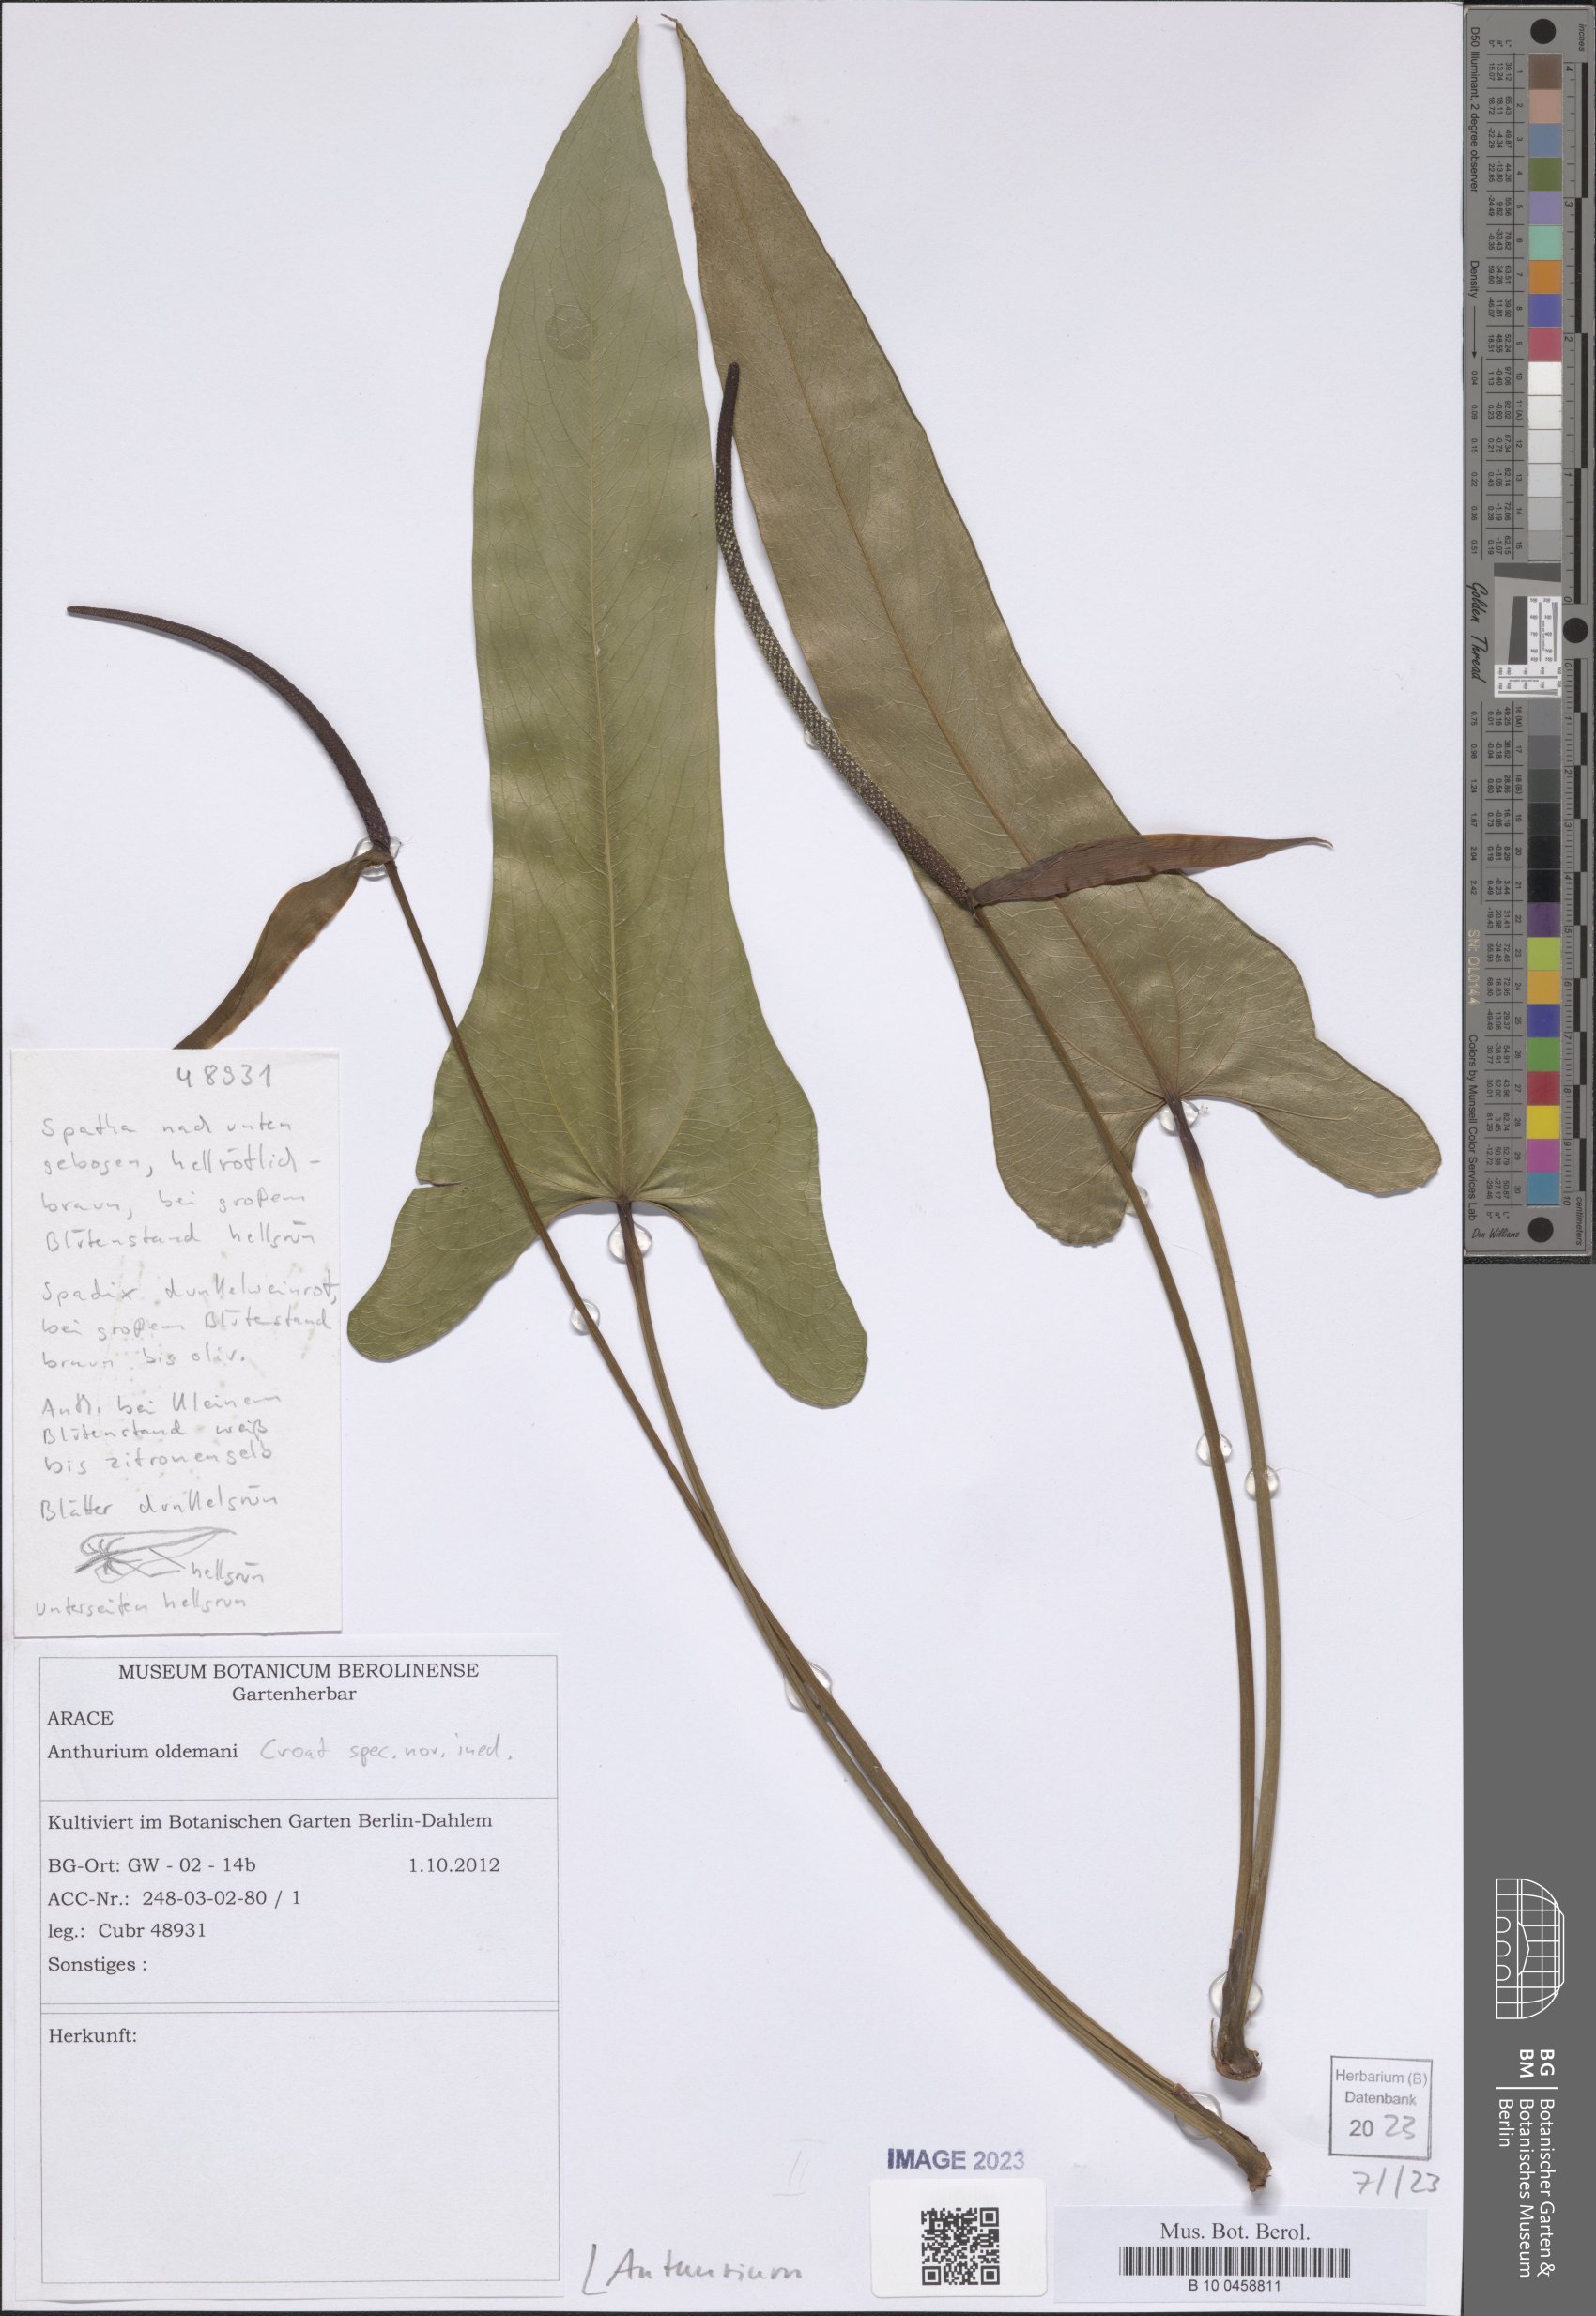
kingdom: Plantae
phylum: Tracheophyta
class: Liliopsida
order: Alismatales
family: Araceae
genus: Anthurium
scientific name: Anthurium
